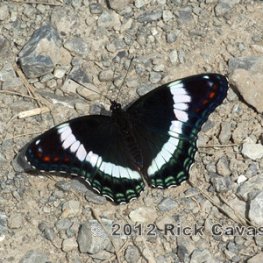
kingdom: Animalia
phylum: Arthropoda
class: Insecta
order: Lepidoptera
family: Nymphalidae
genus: Limenitis
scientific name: Limenitis arthemis
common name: Red-spotted Admiral
